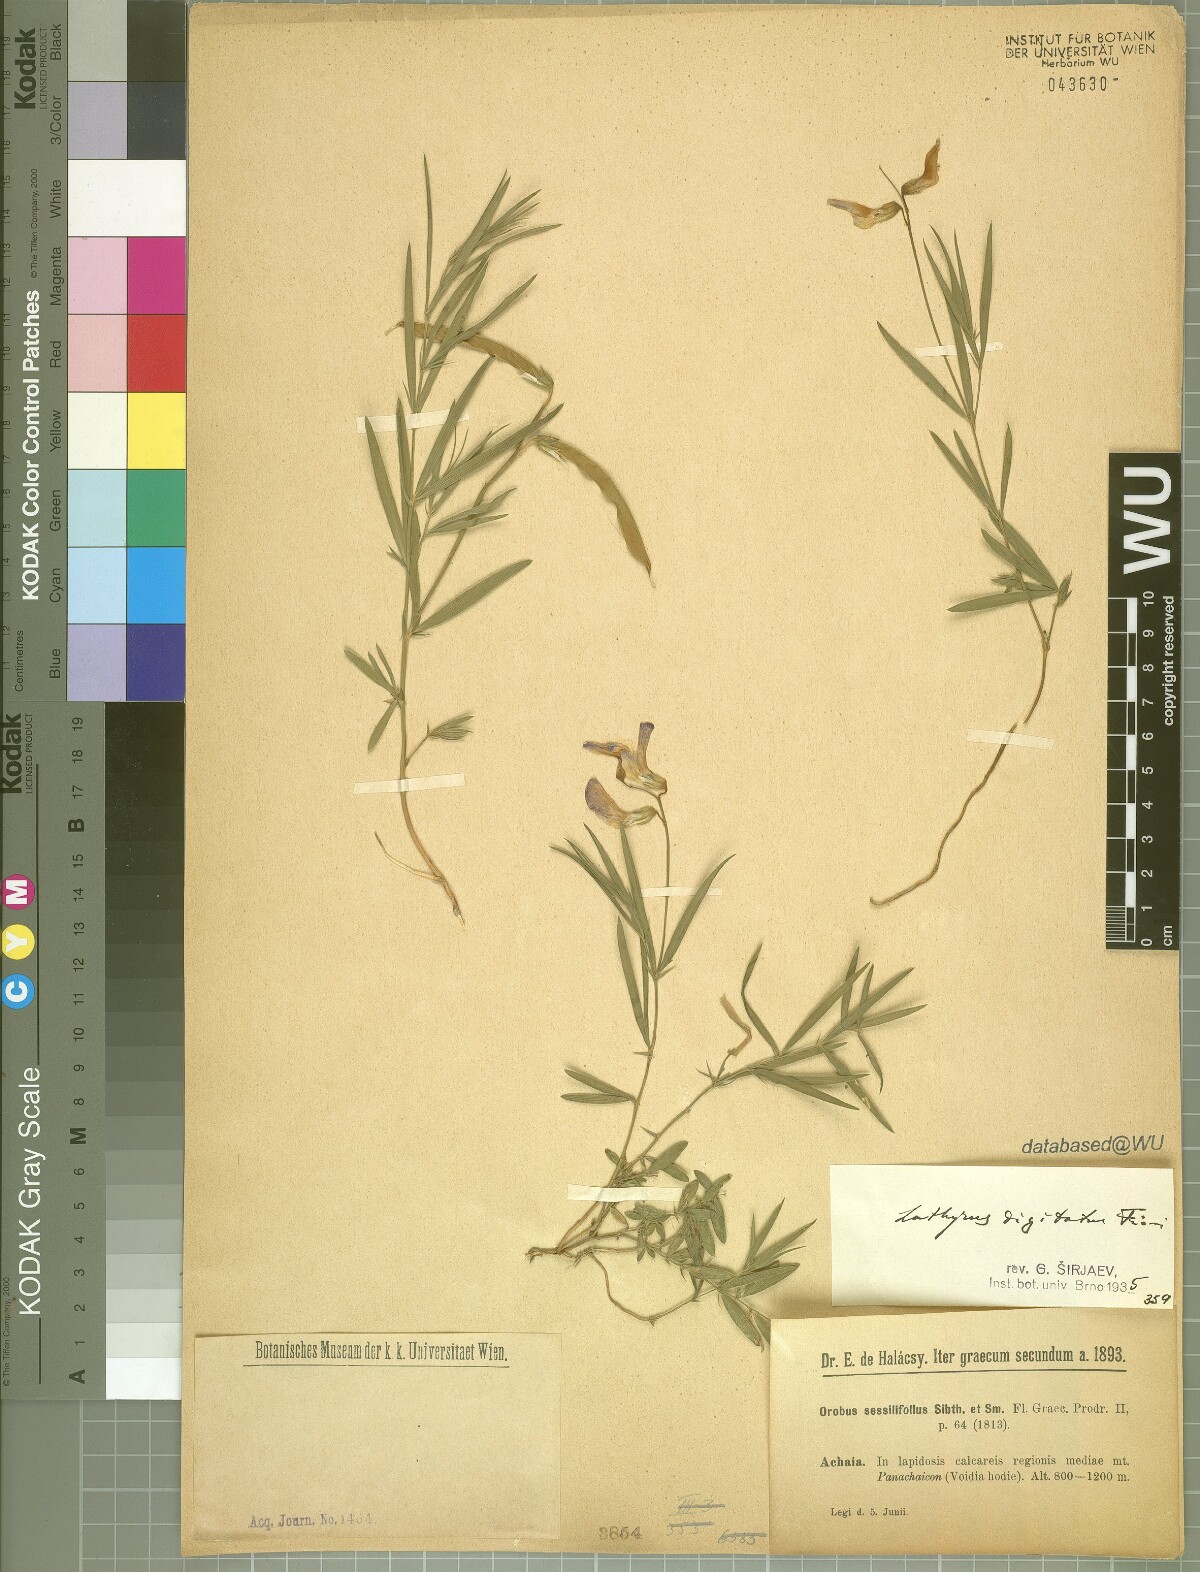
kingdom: Plantae
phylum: Tracheophyta
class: Magnoliopsida
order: Fabales
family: Fabaceae
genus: Lathyrus
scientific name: Lathyrus digitatus
